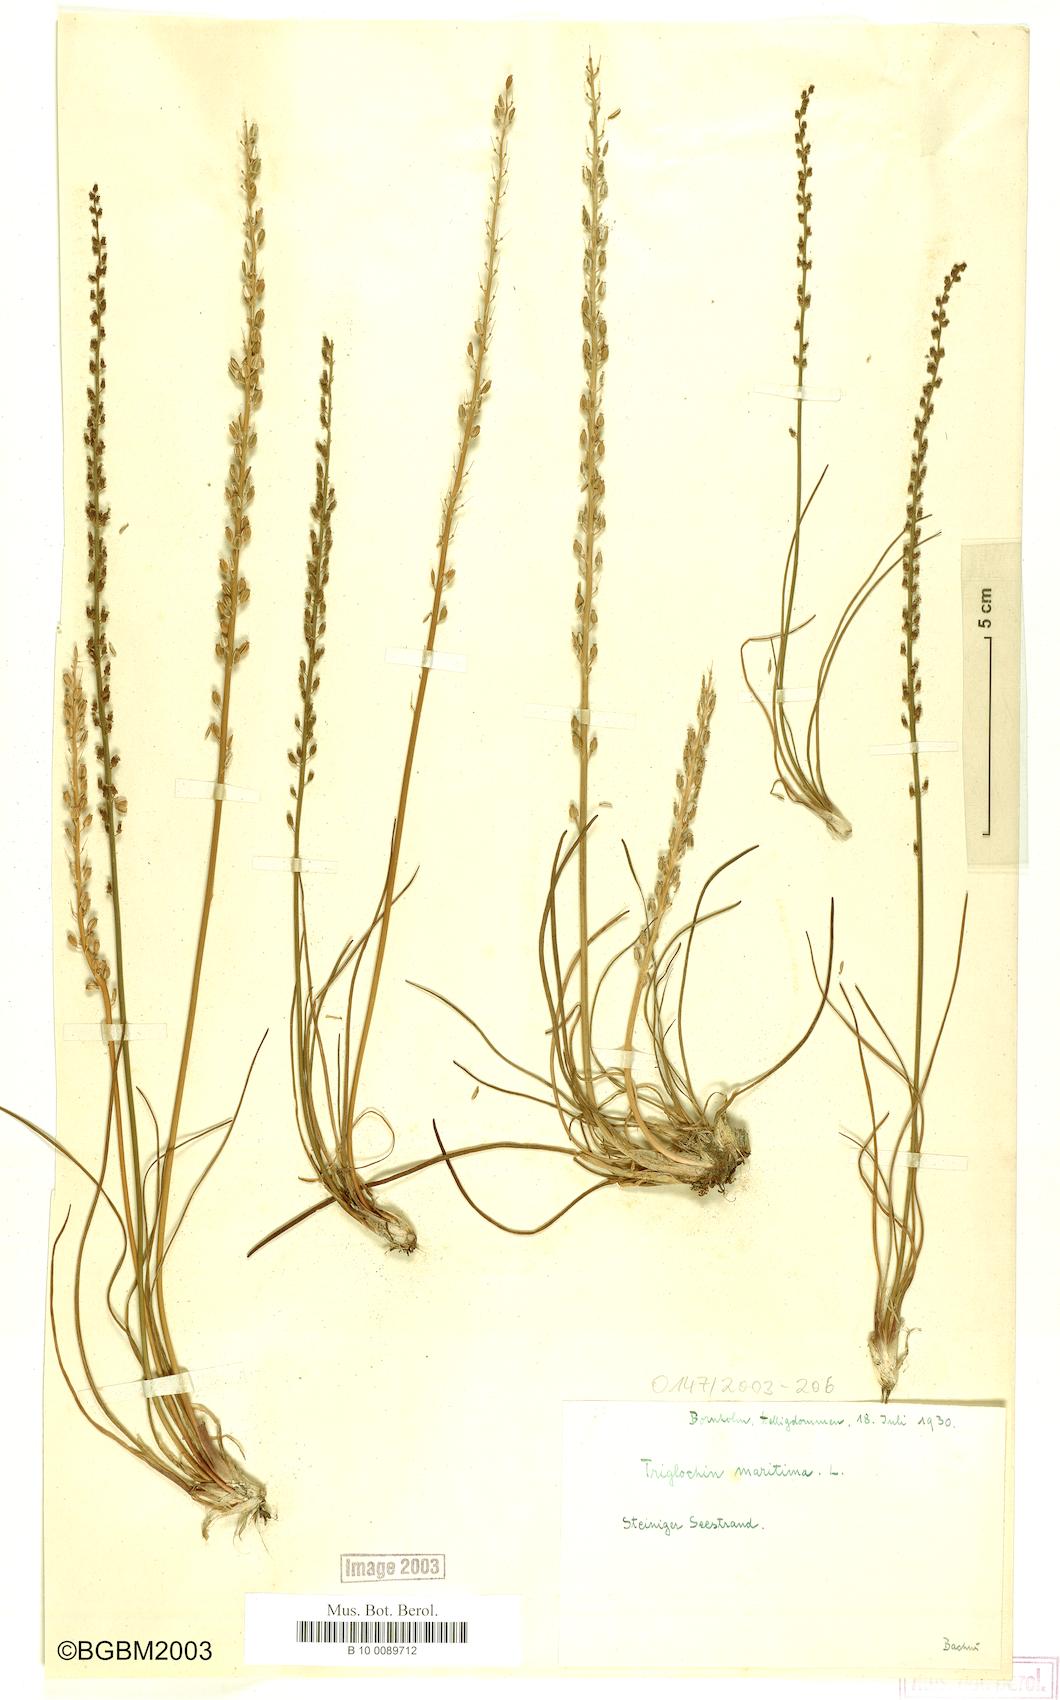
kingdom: Plantae
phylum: Tracheophyta
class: Liliopsida
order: Alismatales
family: Juncaginaceae
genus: Triglochin
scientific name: Triglochin maritima
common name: Sea arrowgrass
